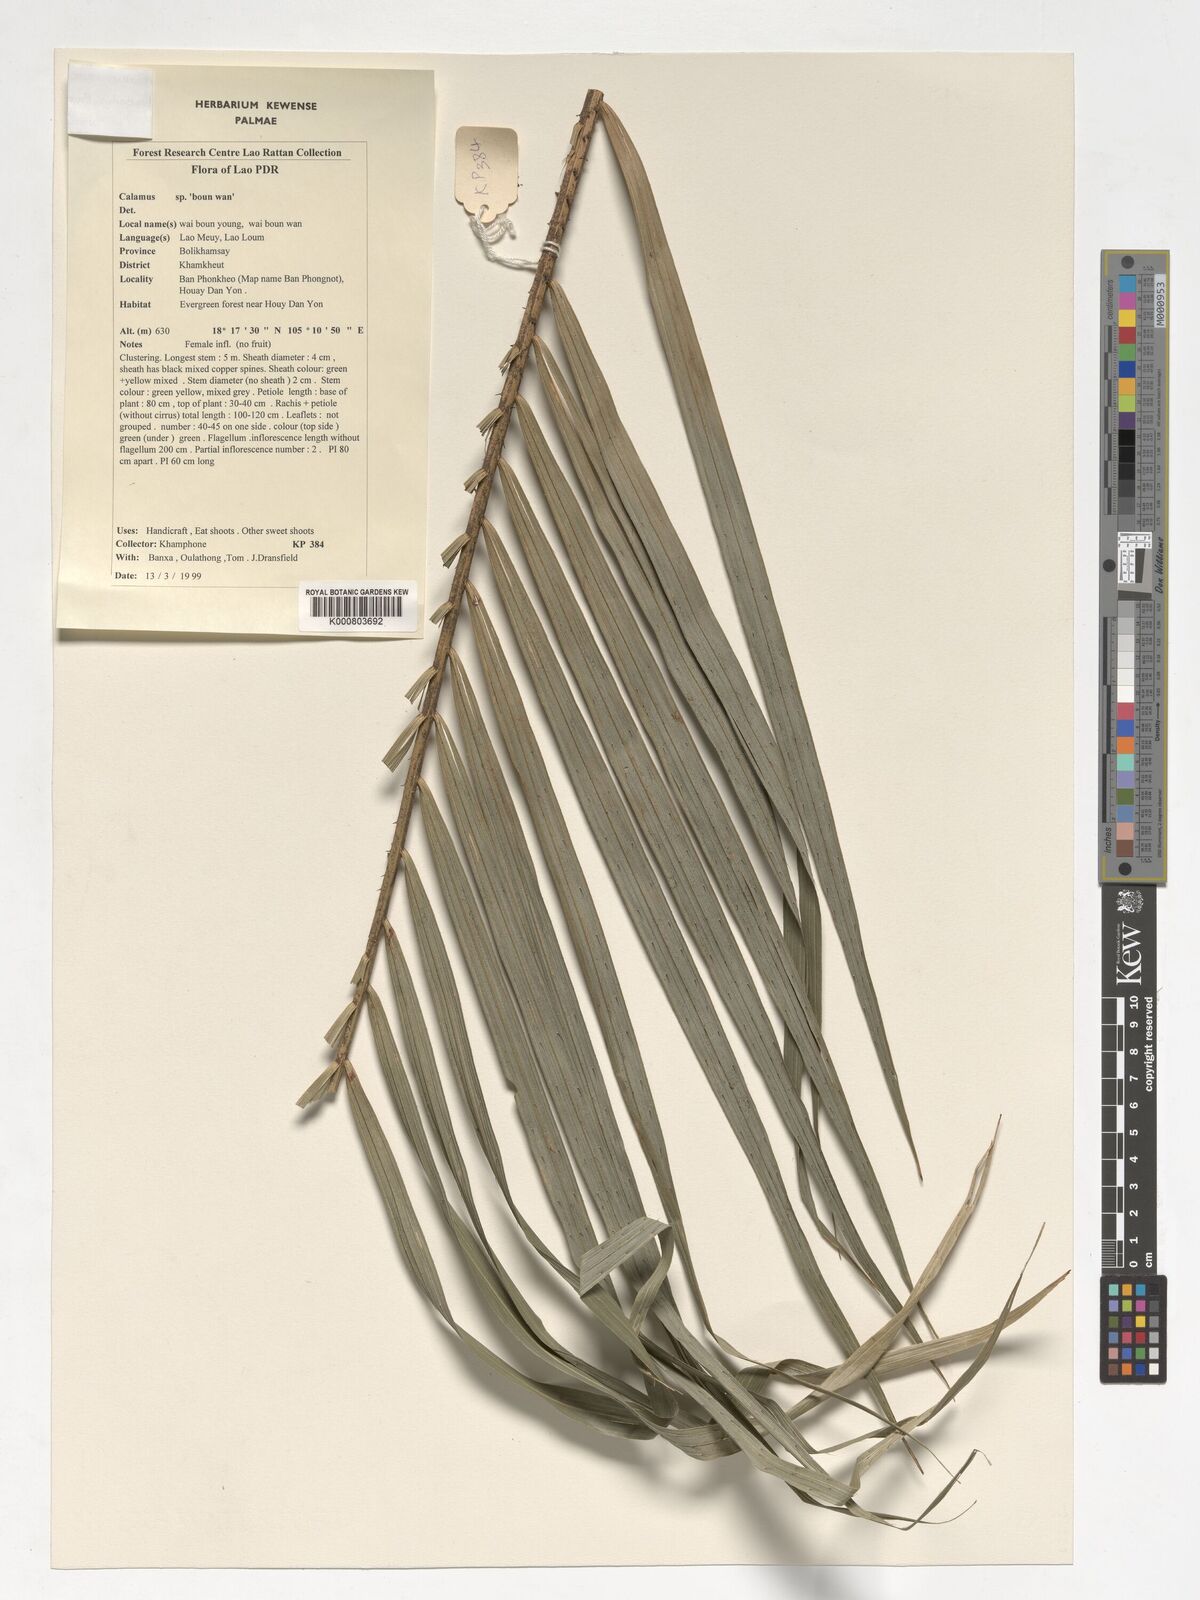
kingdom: Plantae
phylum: Tracheophyta
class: Liliopsida
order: Arecales
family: Arecaceae
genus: Calamus
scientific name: Calamus rhabdocladus
